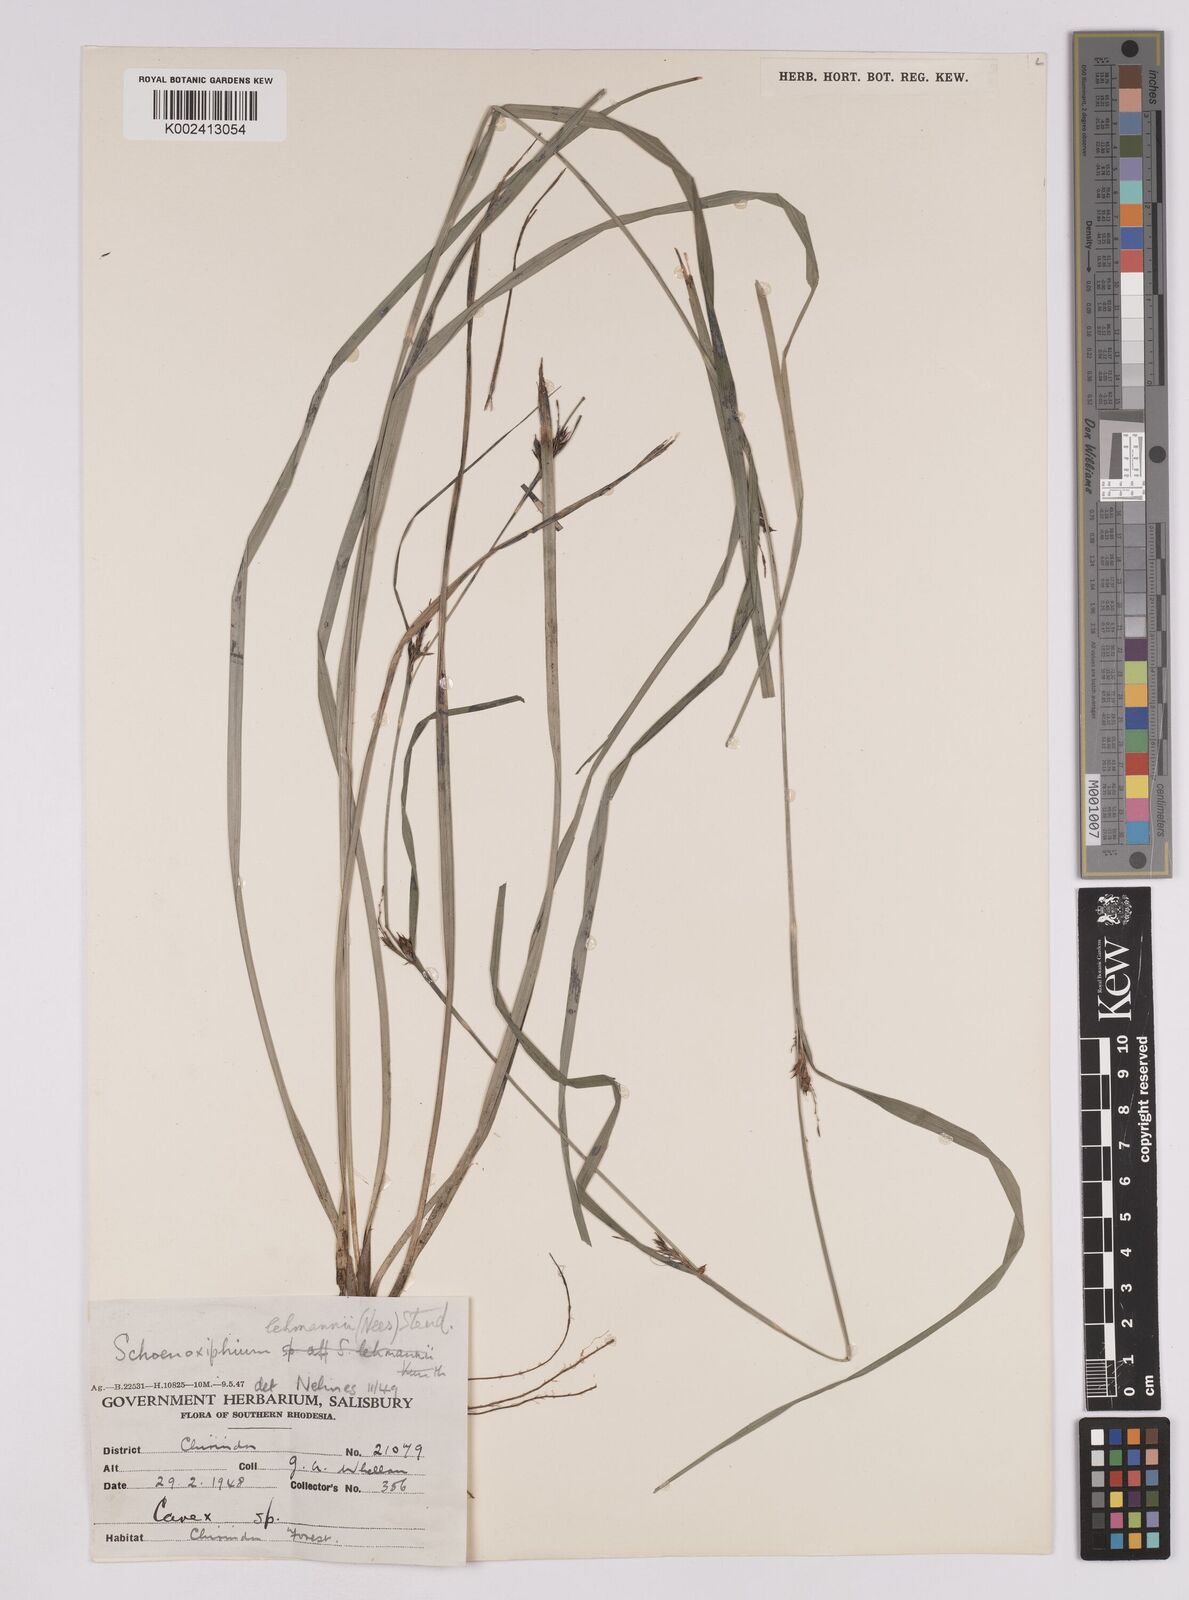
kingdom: Plantae
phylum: Tracheophyta
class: Liliopsida
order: Poales
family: Cyperaceae
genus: Carex
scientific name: Carex uhligii
